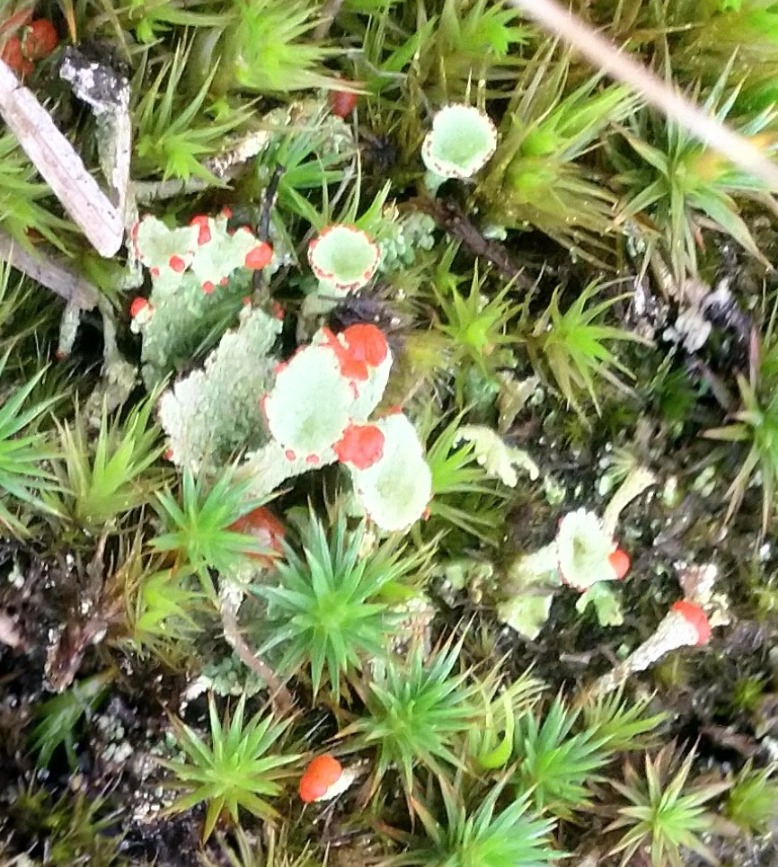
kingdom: Fungi
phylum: Ascomycota
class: Lecanoromycetes
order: Lecanorales
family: Cladoniaceae
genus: Cladonia
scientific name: Cladonia diversa
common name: Rød bægerlav
